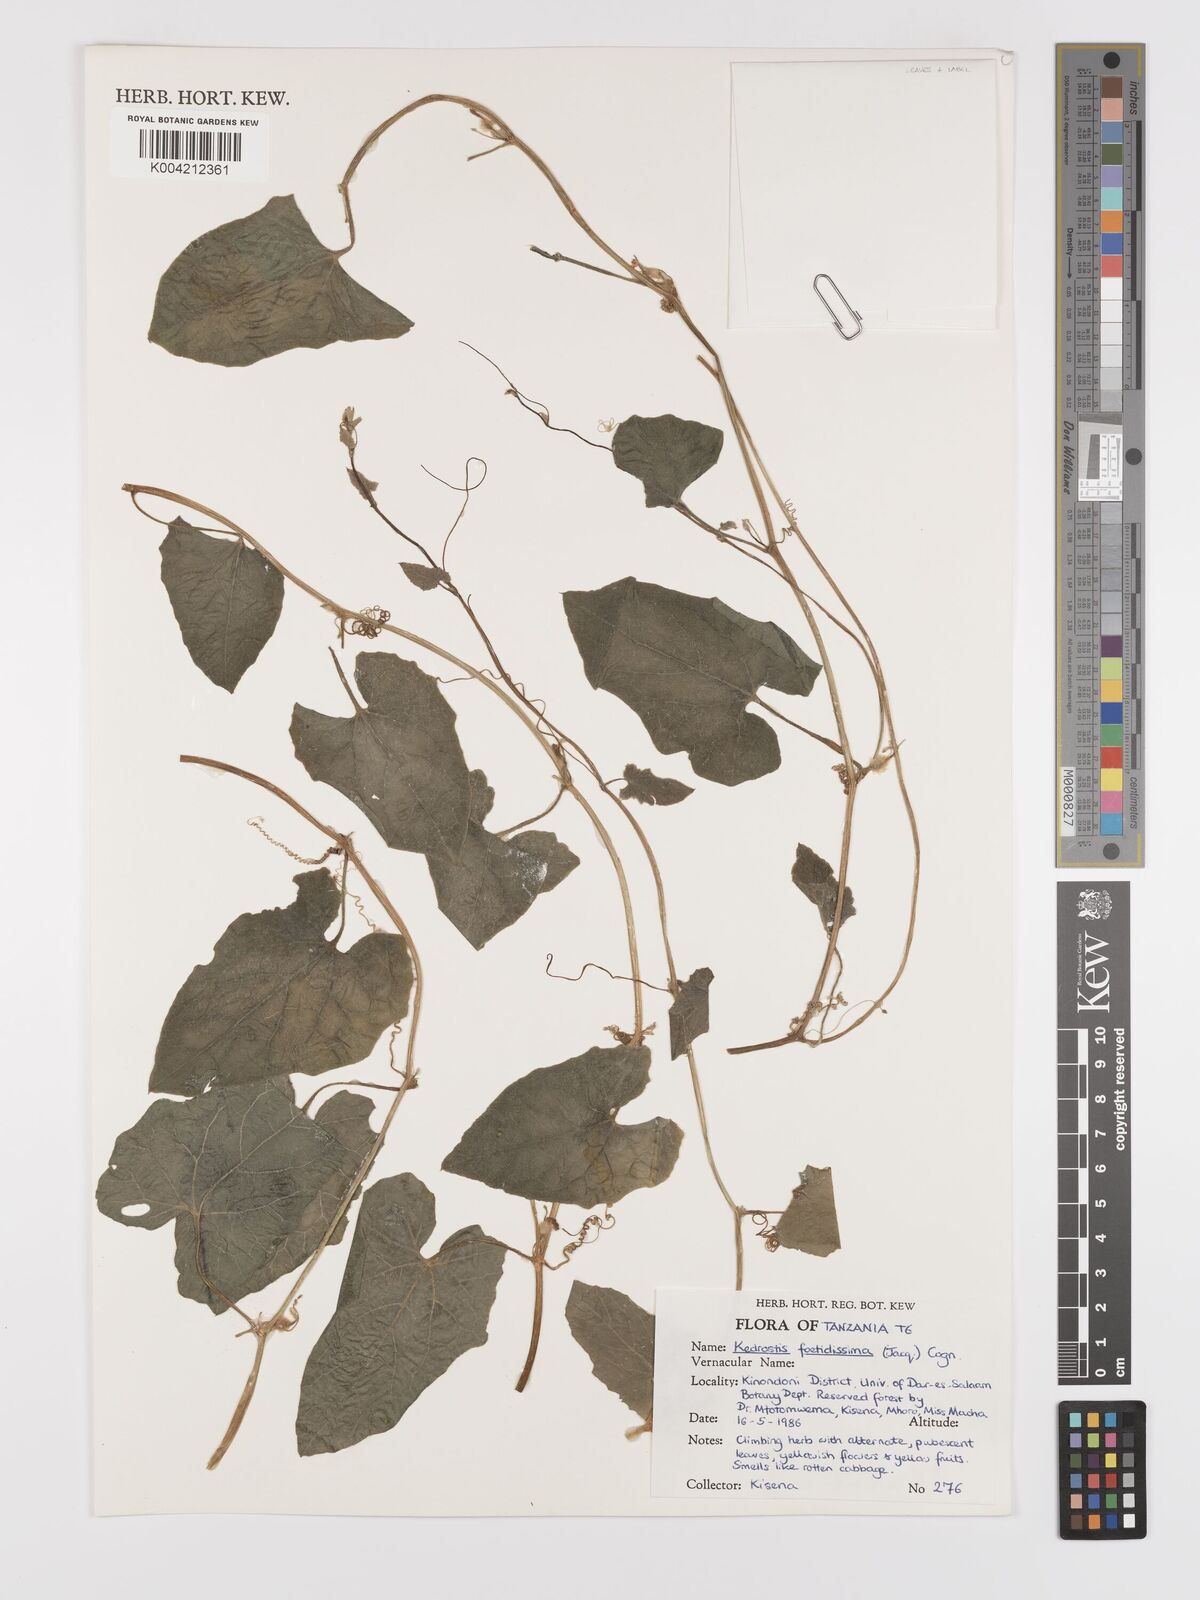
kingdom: Plantae
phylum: Tracheophyta
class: Magnoliopsida
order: Cucurbitales
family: Cucurbitaceae
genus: Kedrostis
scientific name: Kedrostis foetidissima
